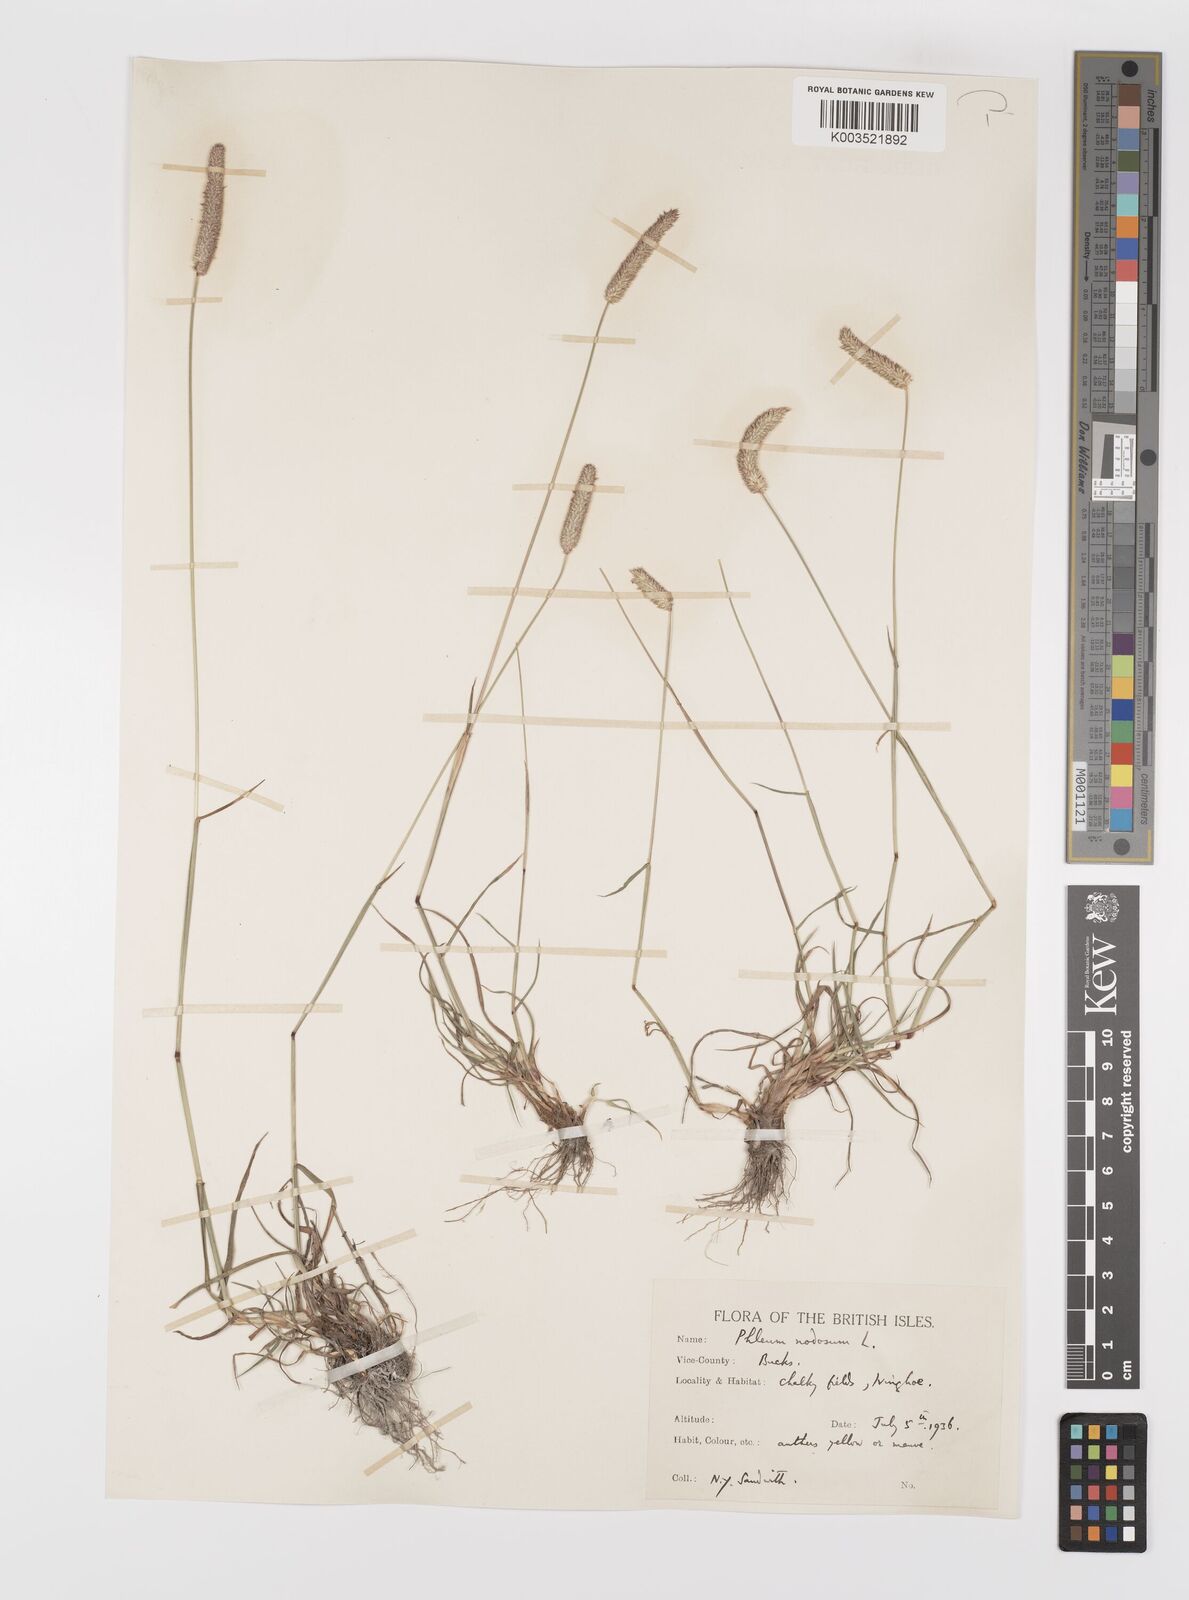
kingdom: Plantae
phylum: Tracheophyta
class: Liliopsida
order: Poales
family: Poaceae
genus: Phleum
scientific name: Phleum bertolonii
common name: Smaller cat's-tail
